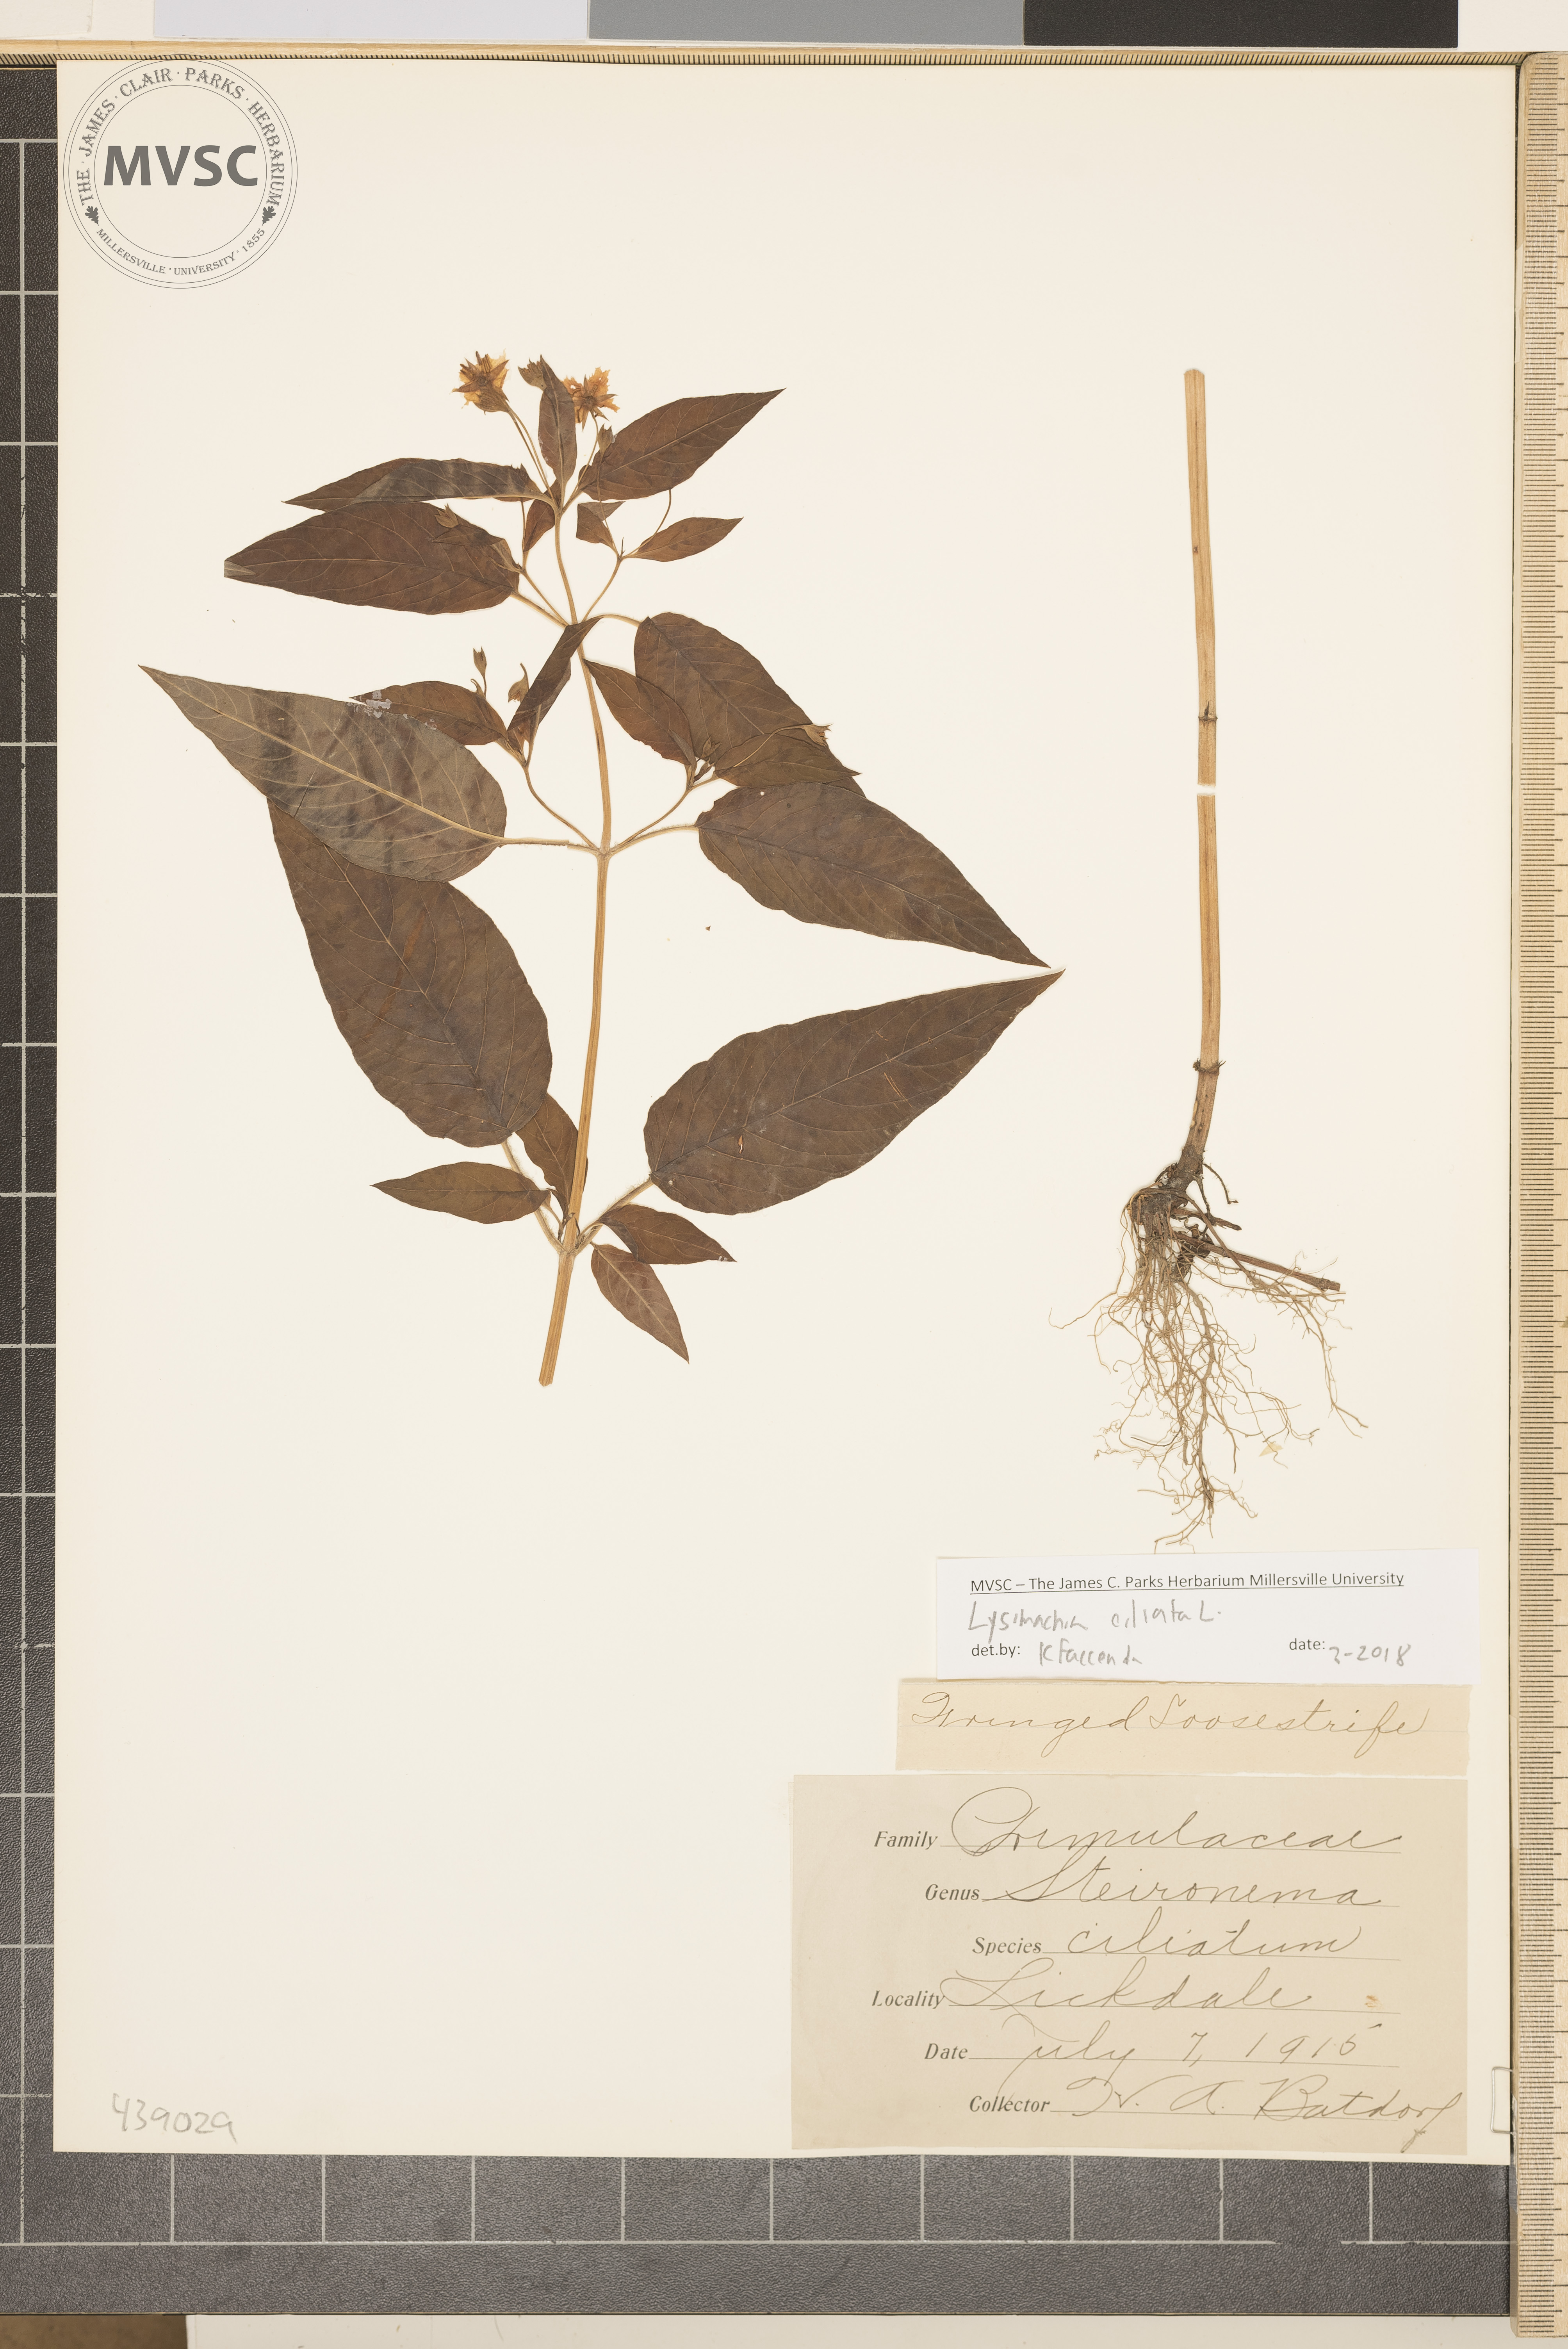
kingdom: Plantae
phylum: Tracheophyta
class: Magnoliopsida
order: Ericales
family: Primulaceae
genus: Lysimachia
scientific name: Lysimachia ciliata
